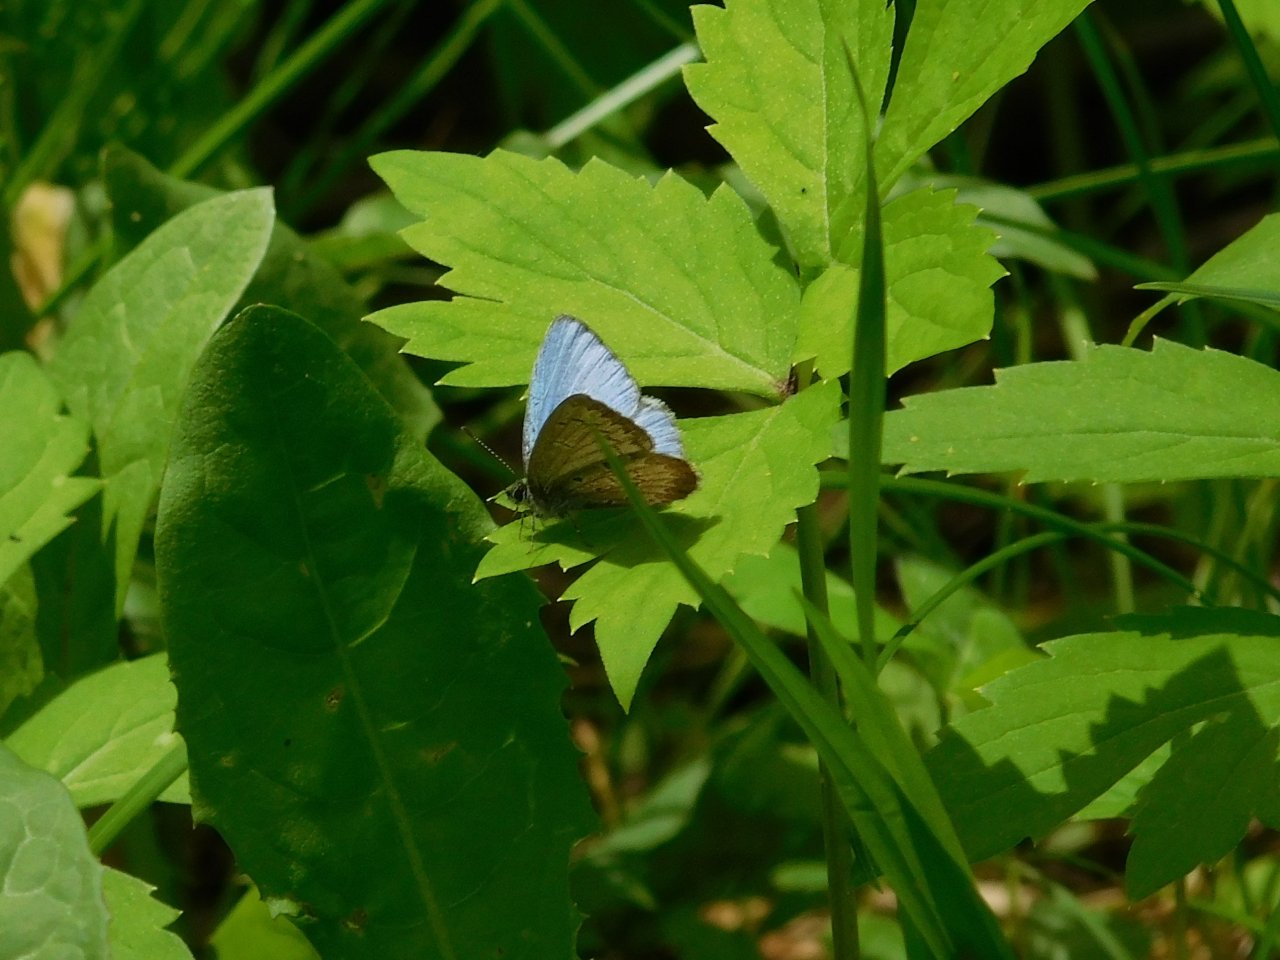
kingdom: Animalia
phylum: Arthropoda
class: Insecta
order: Lepidoptera
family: Lycaenidae
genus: Celastrina
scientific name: Celastrina lucia
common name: Northern Spring Azure
